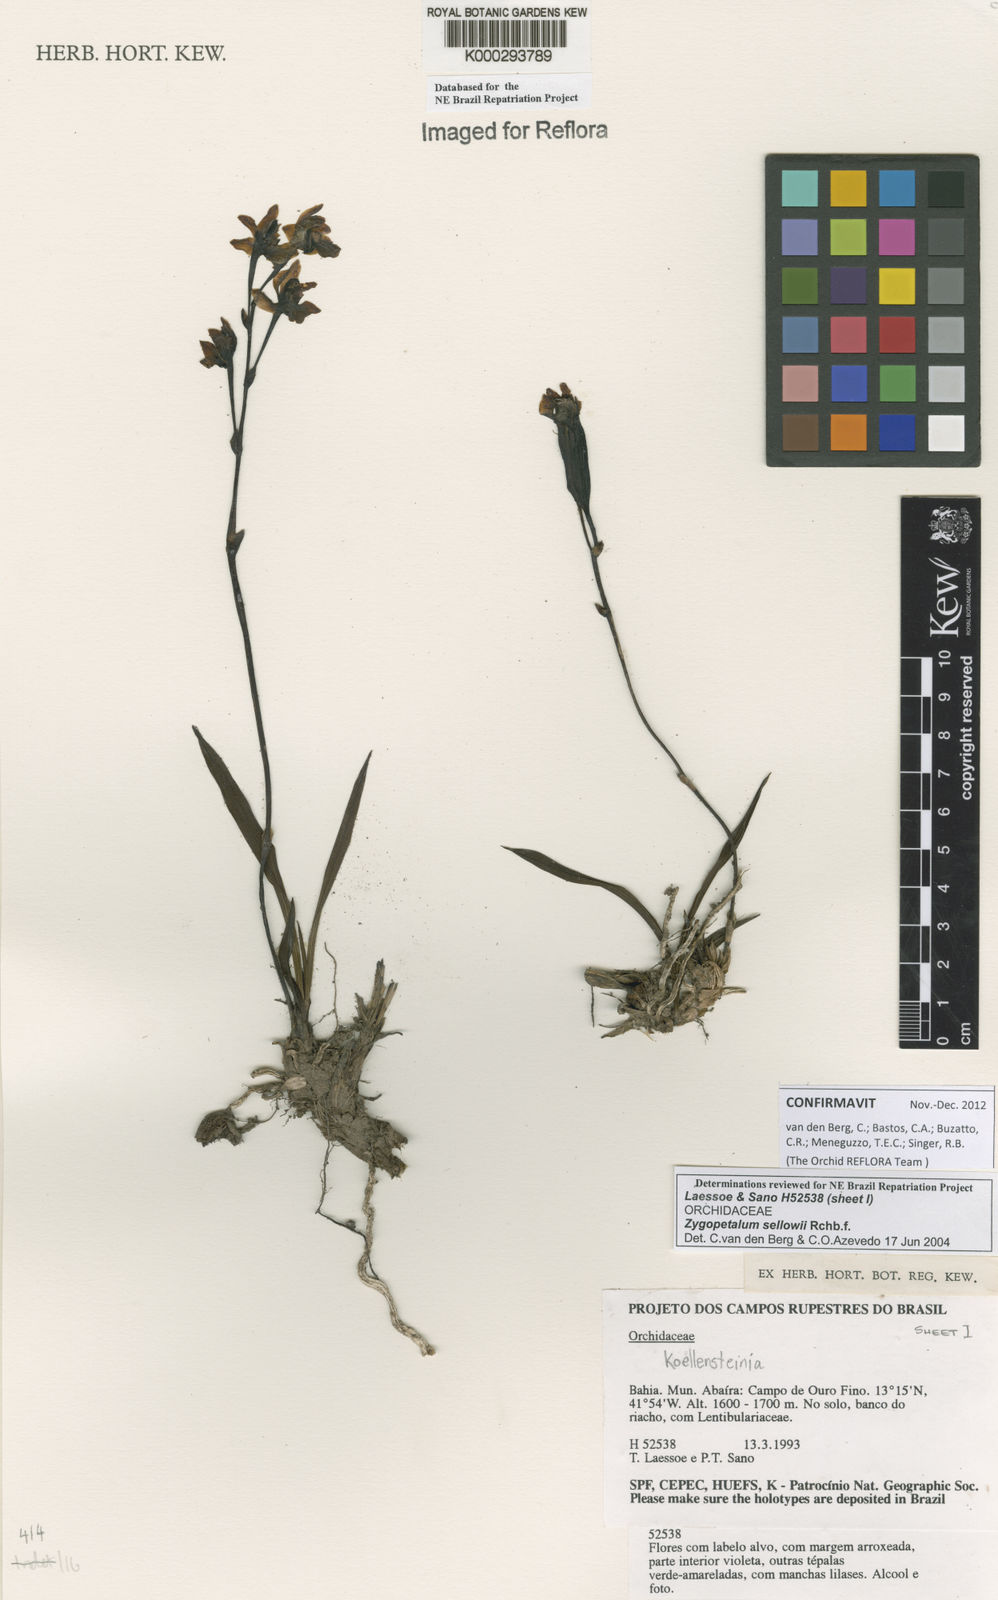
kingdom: Plantae
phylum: Tracheophyta
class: Liliopsida
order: Asparagales
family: Orchidaceae
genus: Zygopetalum
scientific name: Zygopetalum sellowii
